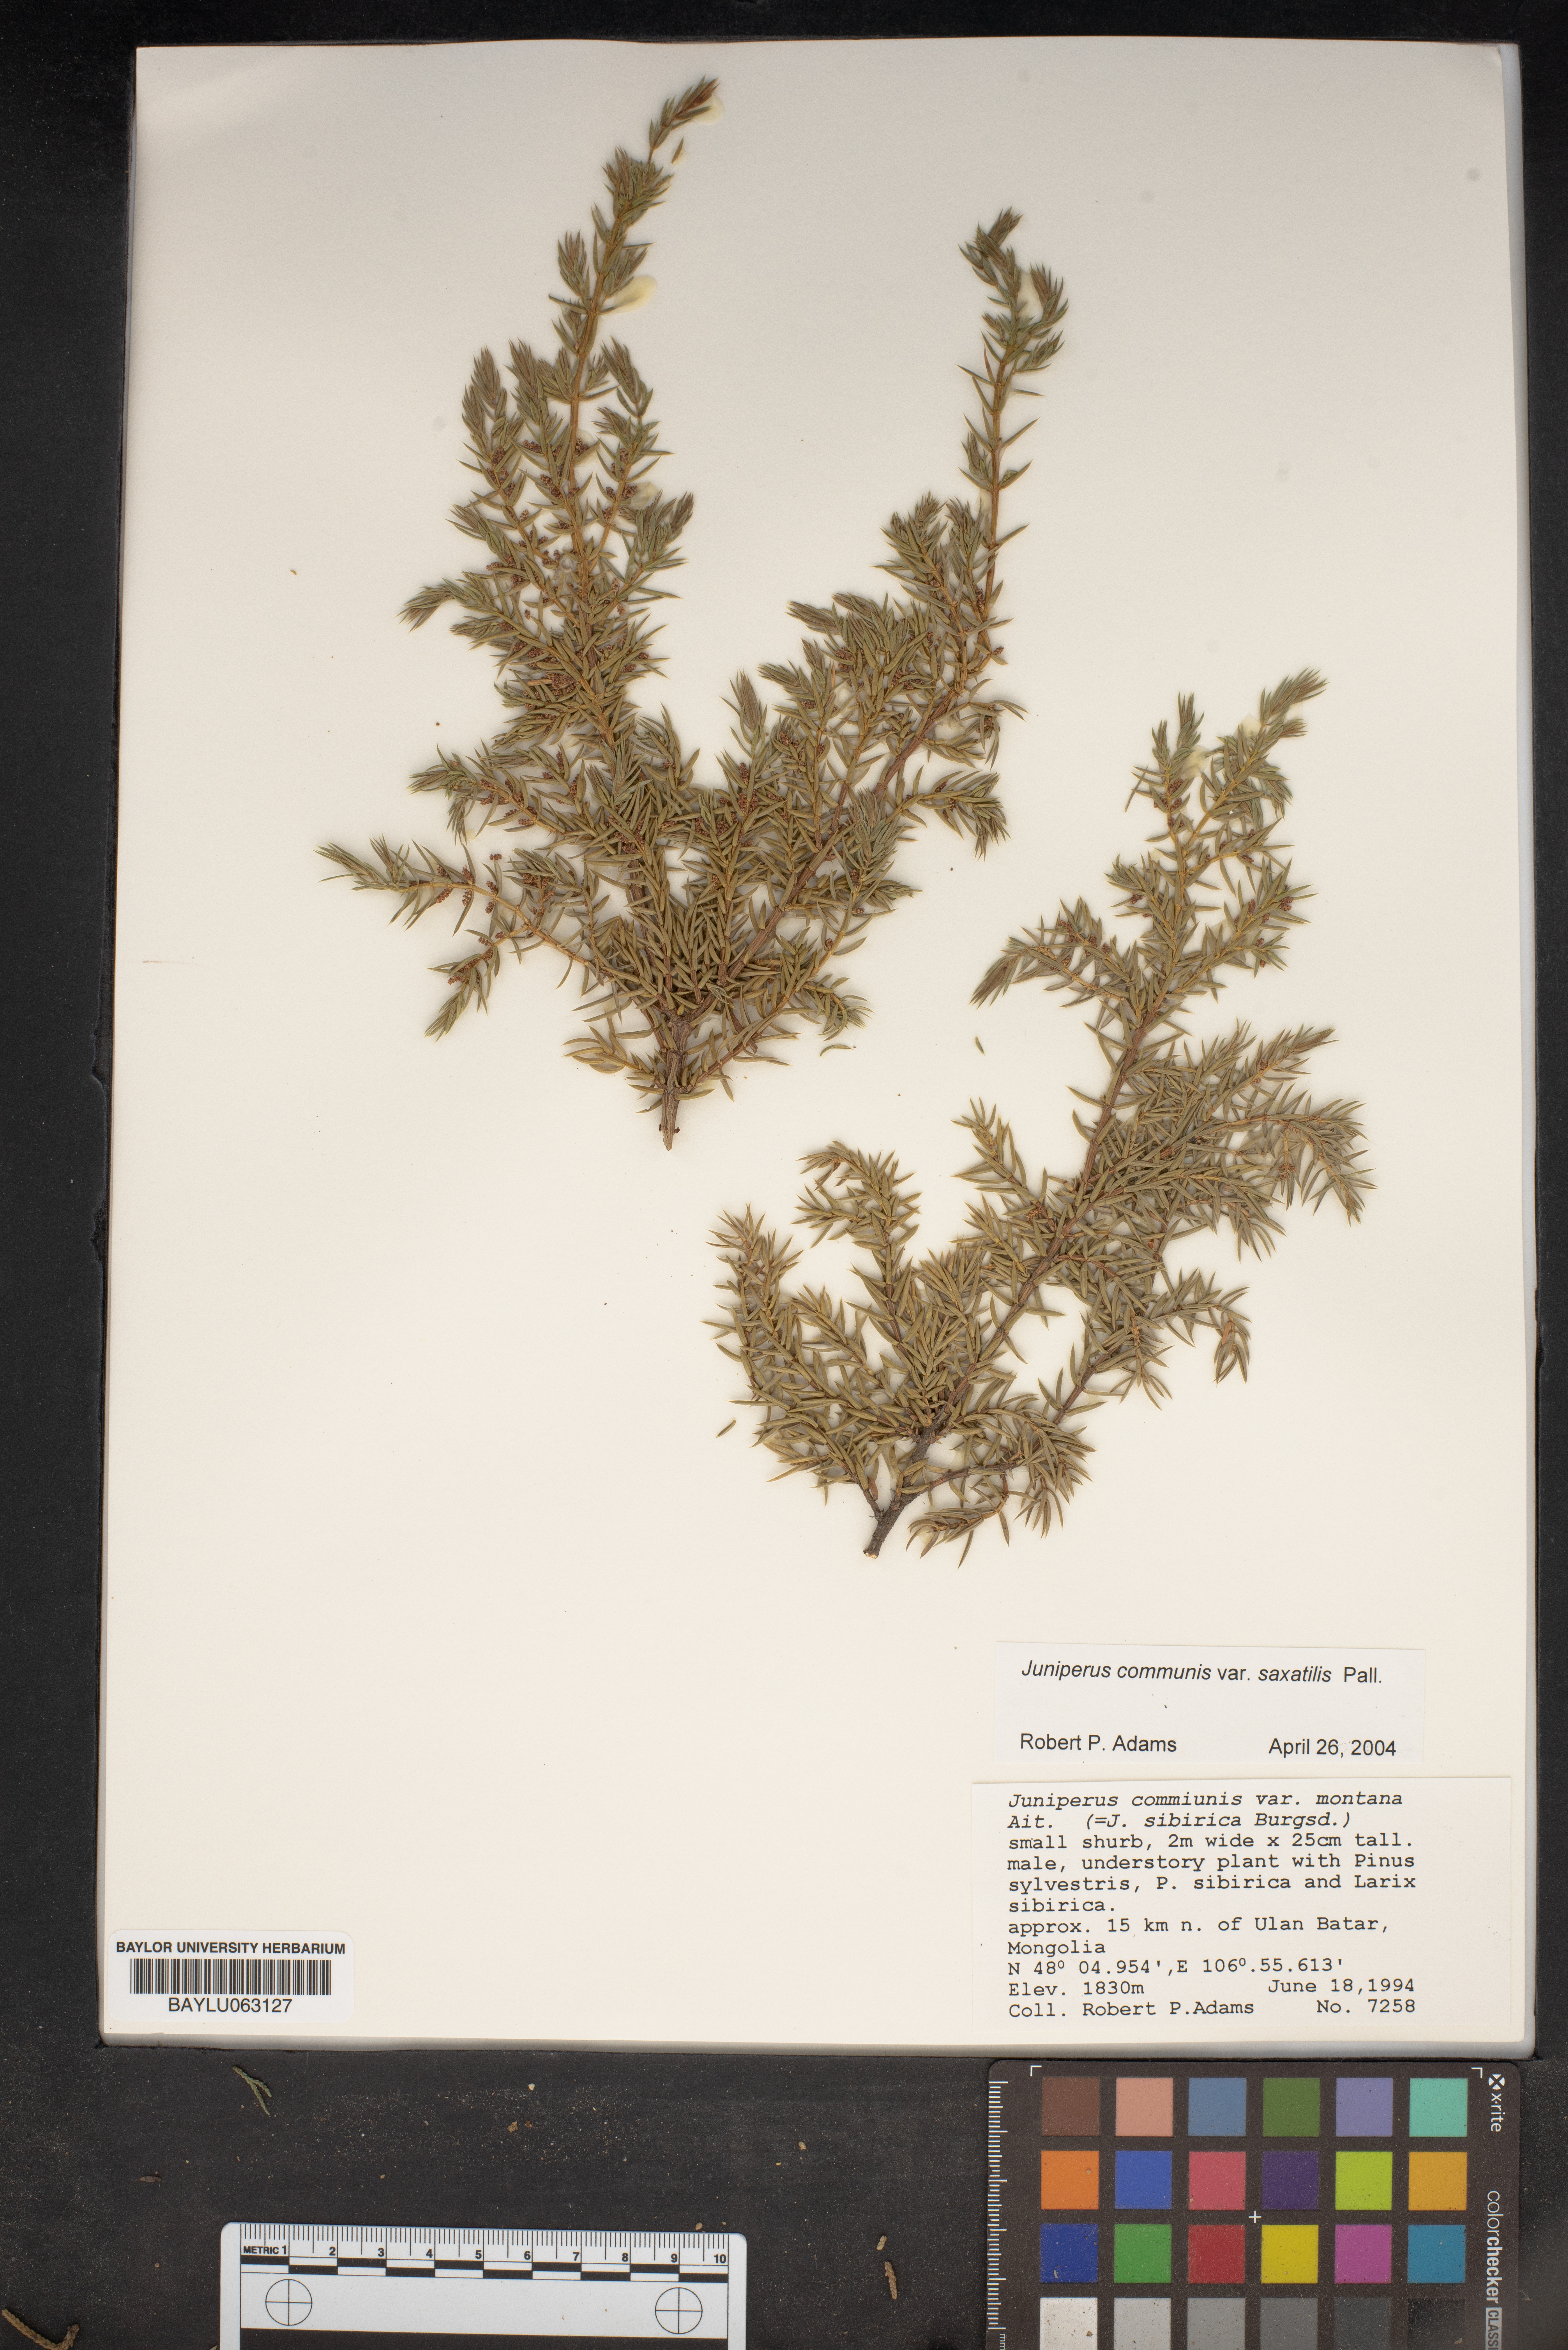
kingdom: Plantae
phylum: Tracheophyta
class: Pinopsida
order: Pinales
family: Cupressaceae
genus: Juniperus
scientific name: Juniperus communis
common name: Common juniper
